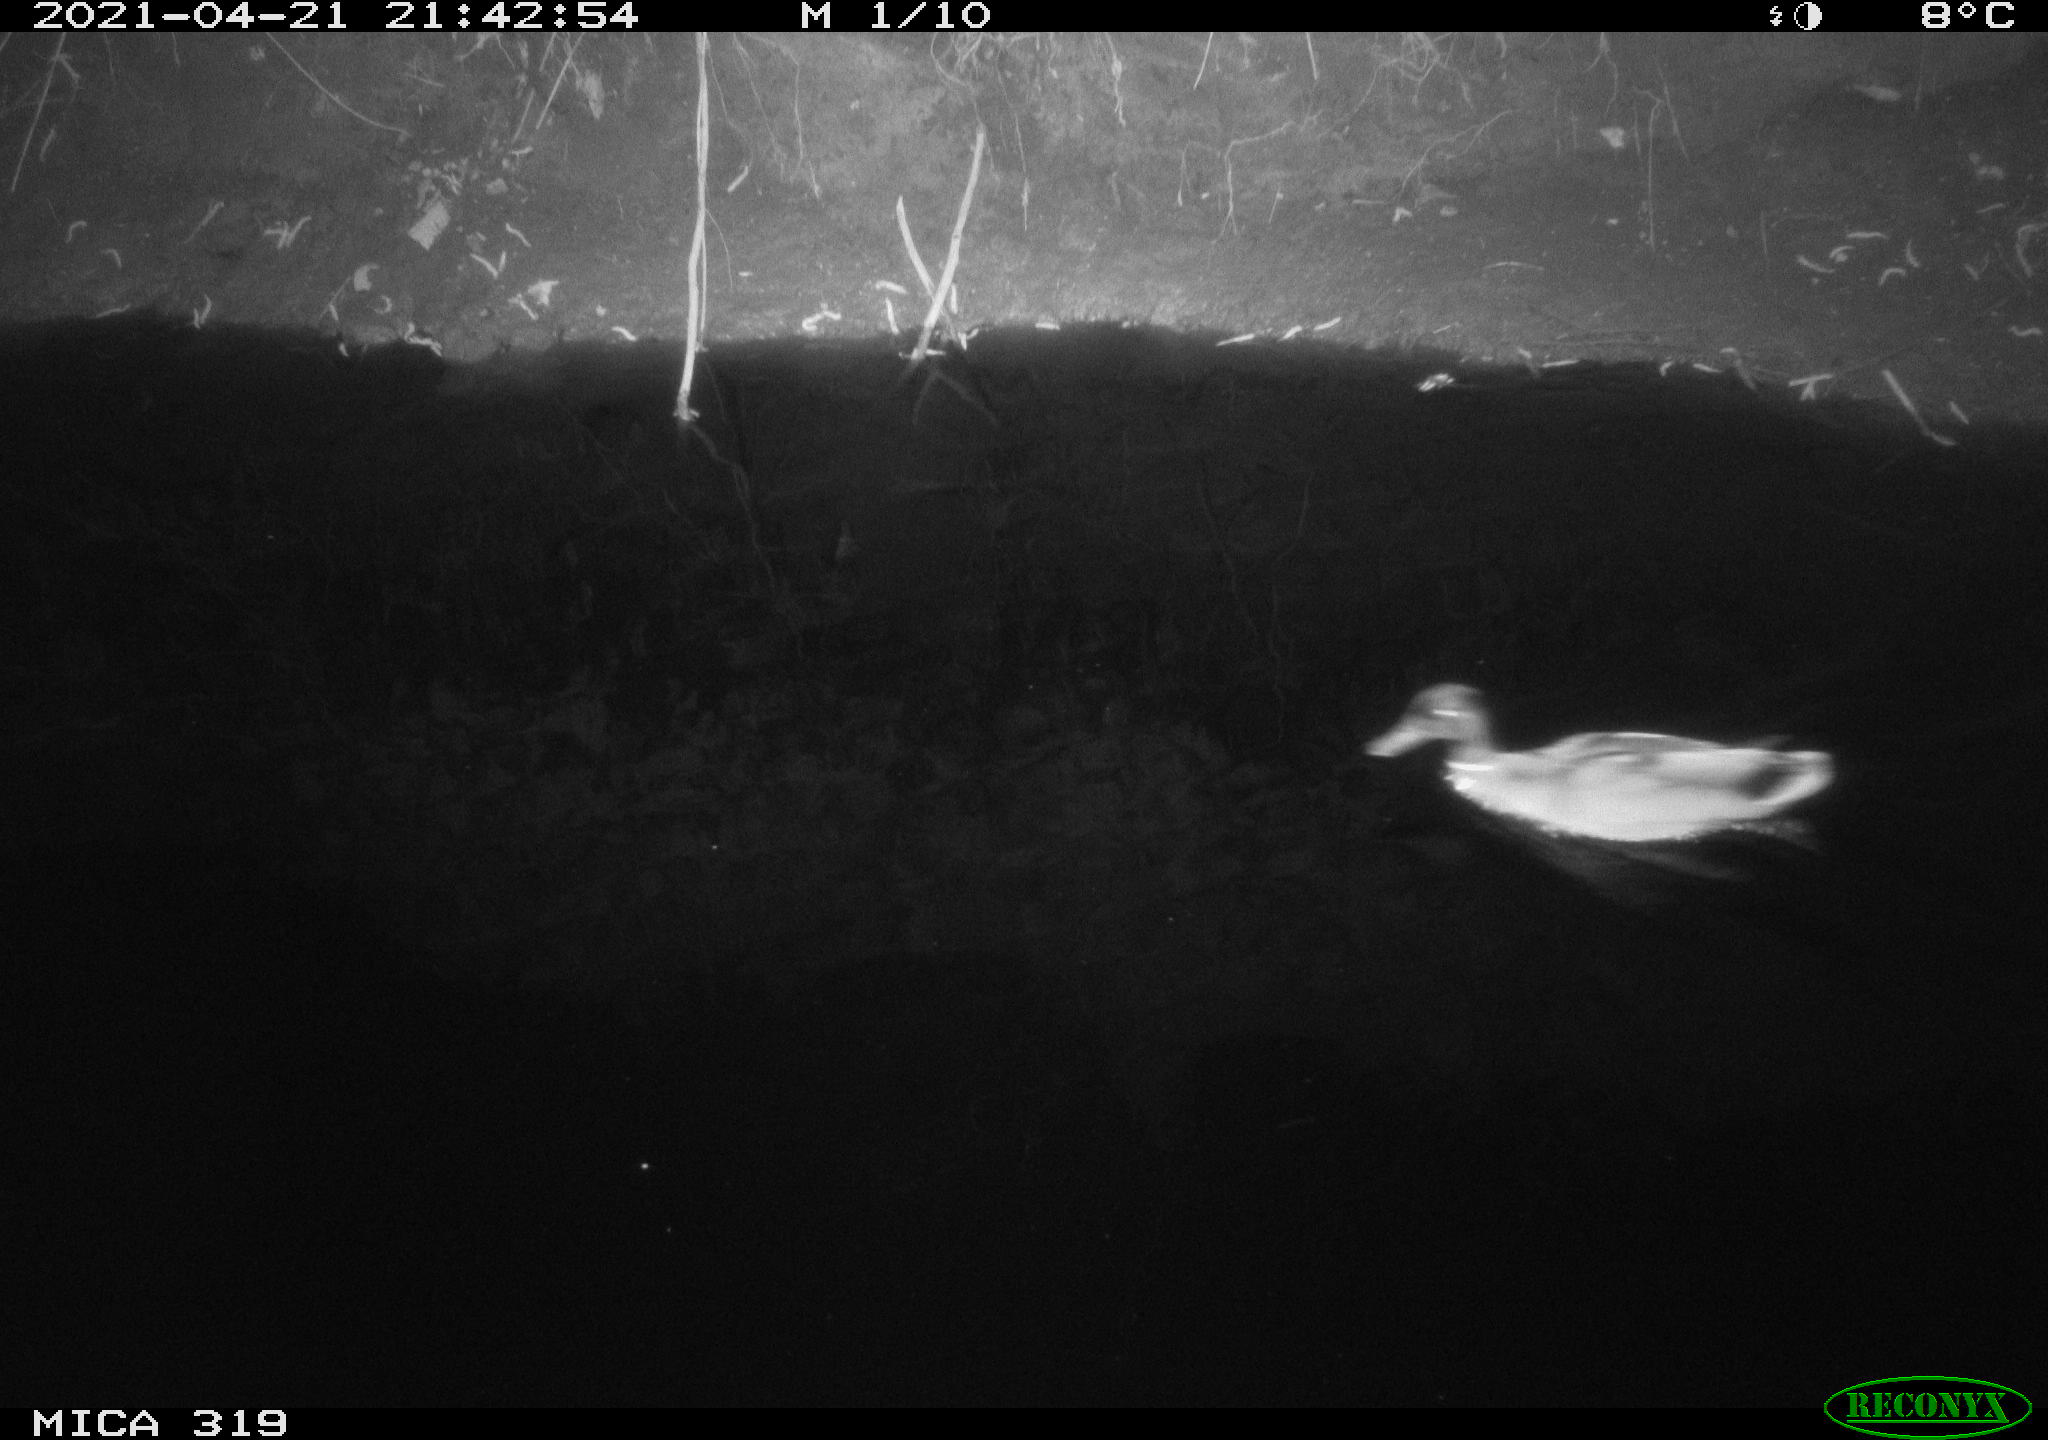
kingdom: Animalia
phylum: Chordata
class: Aves
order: Anseriformes
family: Anatidae
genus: Anas
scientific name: Anas platyrhynchos
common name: Mallard
